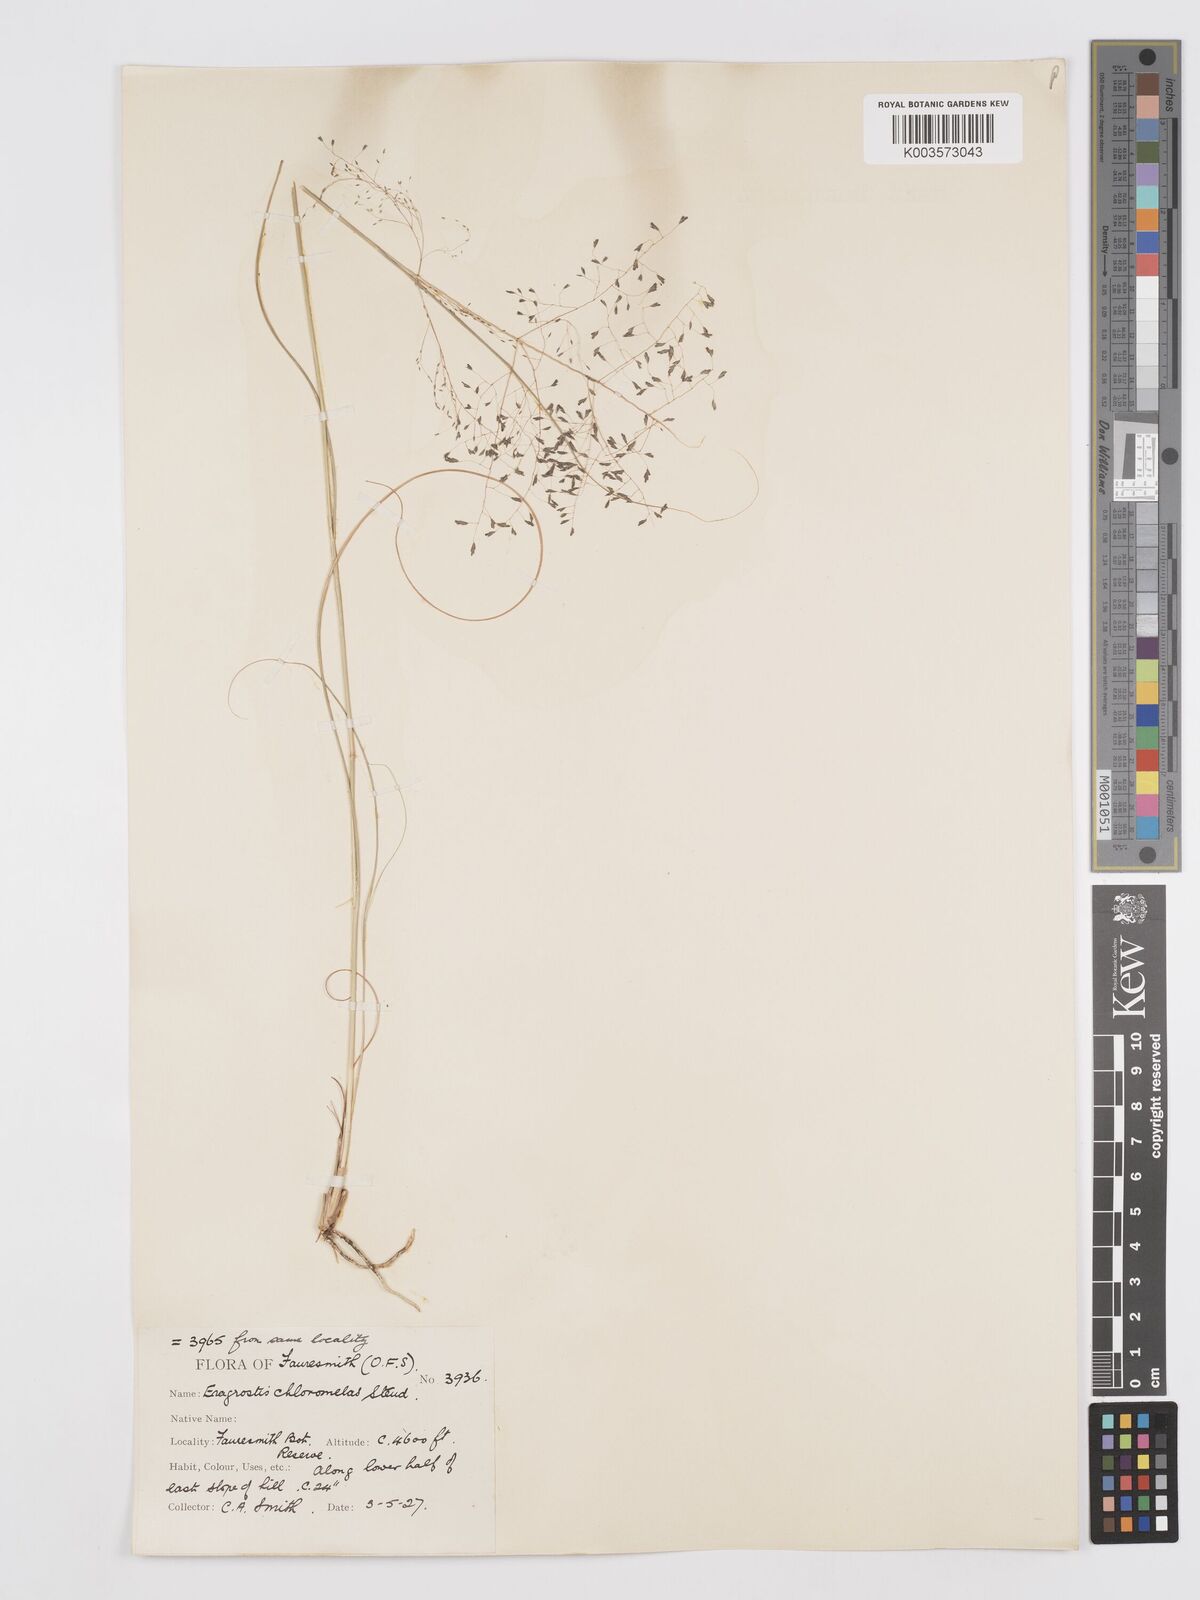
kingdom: Plantae
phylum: Tracheophyta
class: Liliopsida
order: Poales
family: Poaceae
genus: Eragrostis
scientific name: Eragrostis curvula
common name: African love-grass
